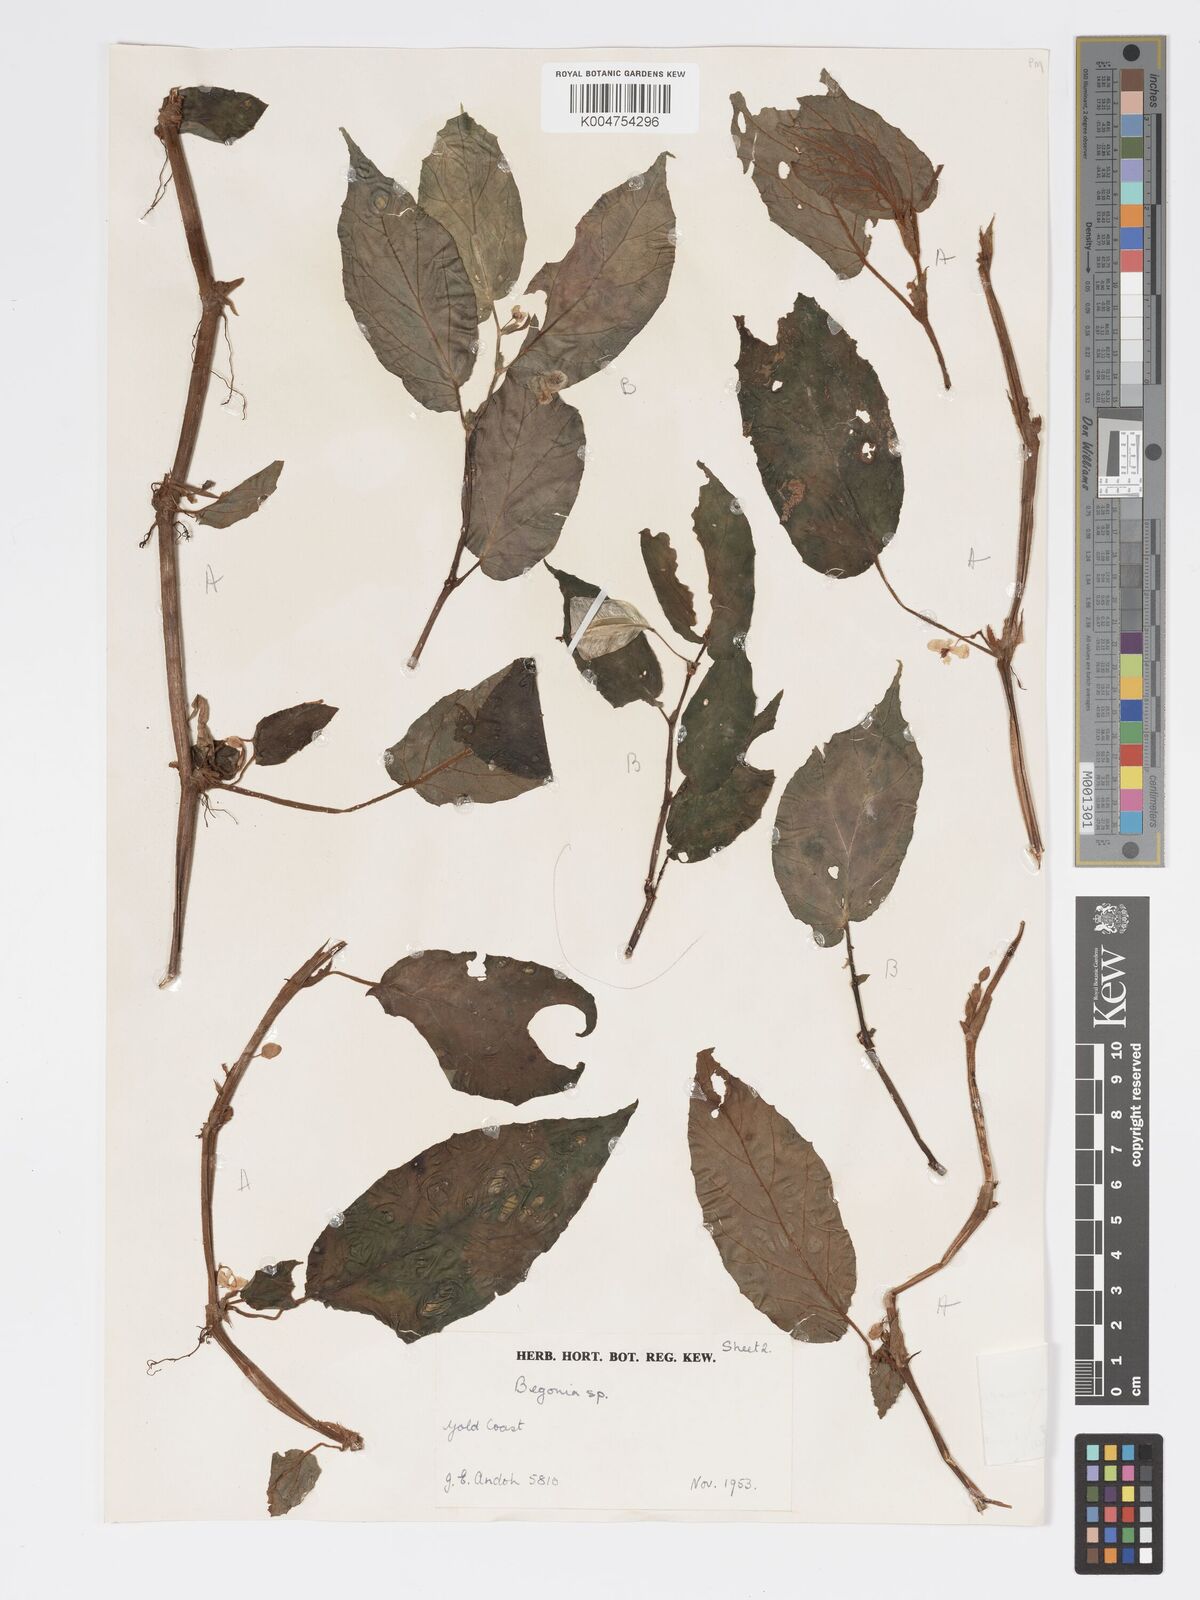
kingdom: Plantae
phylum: Tracheophyta
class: Magnoliopsida
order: Cucurbitales
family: Begoniaceae
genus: Begonia
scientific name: Begonia macrocarpa
